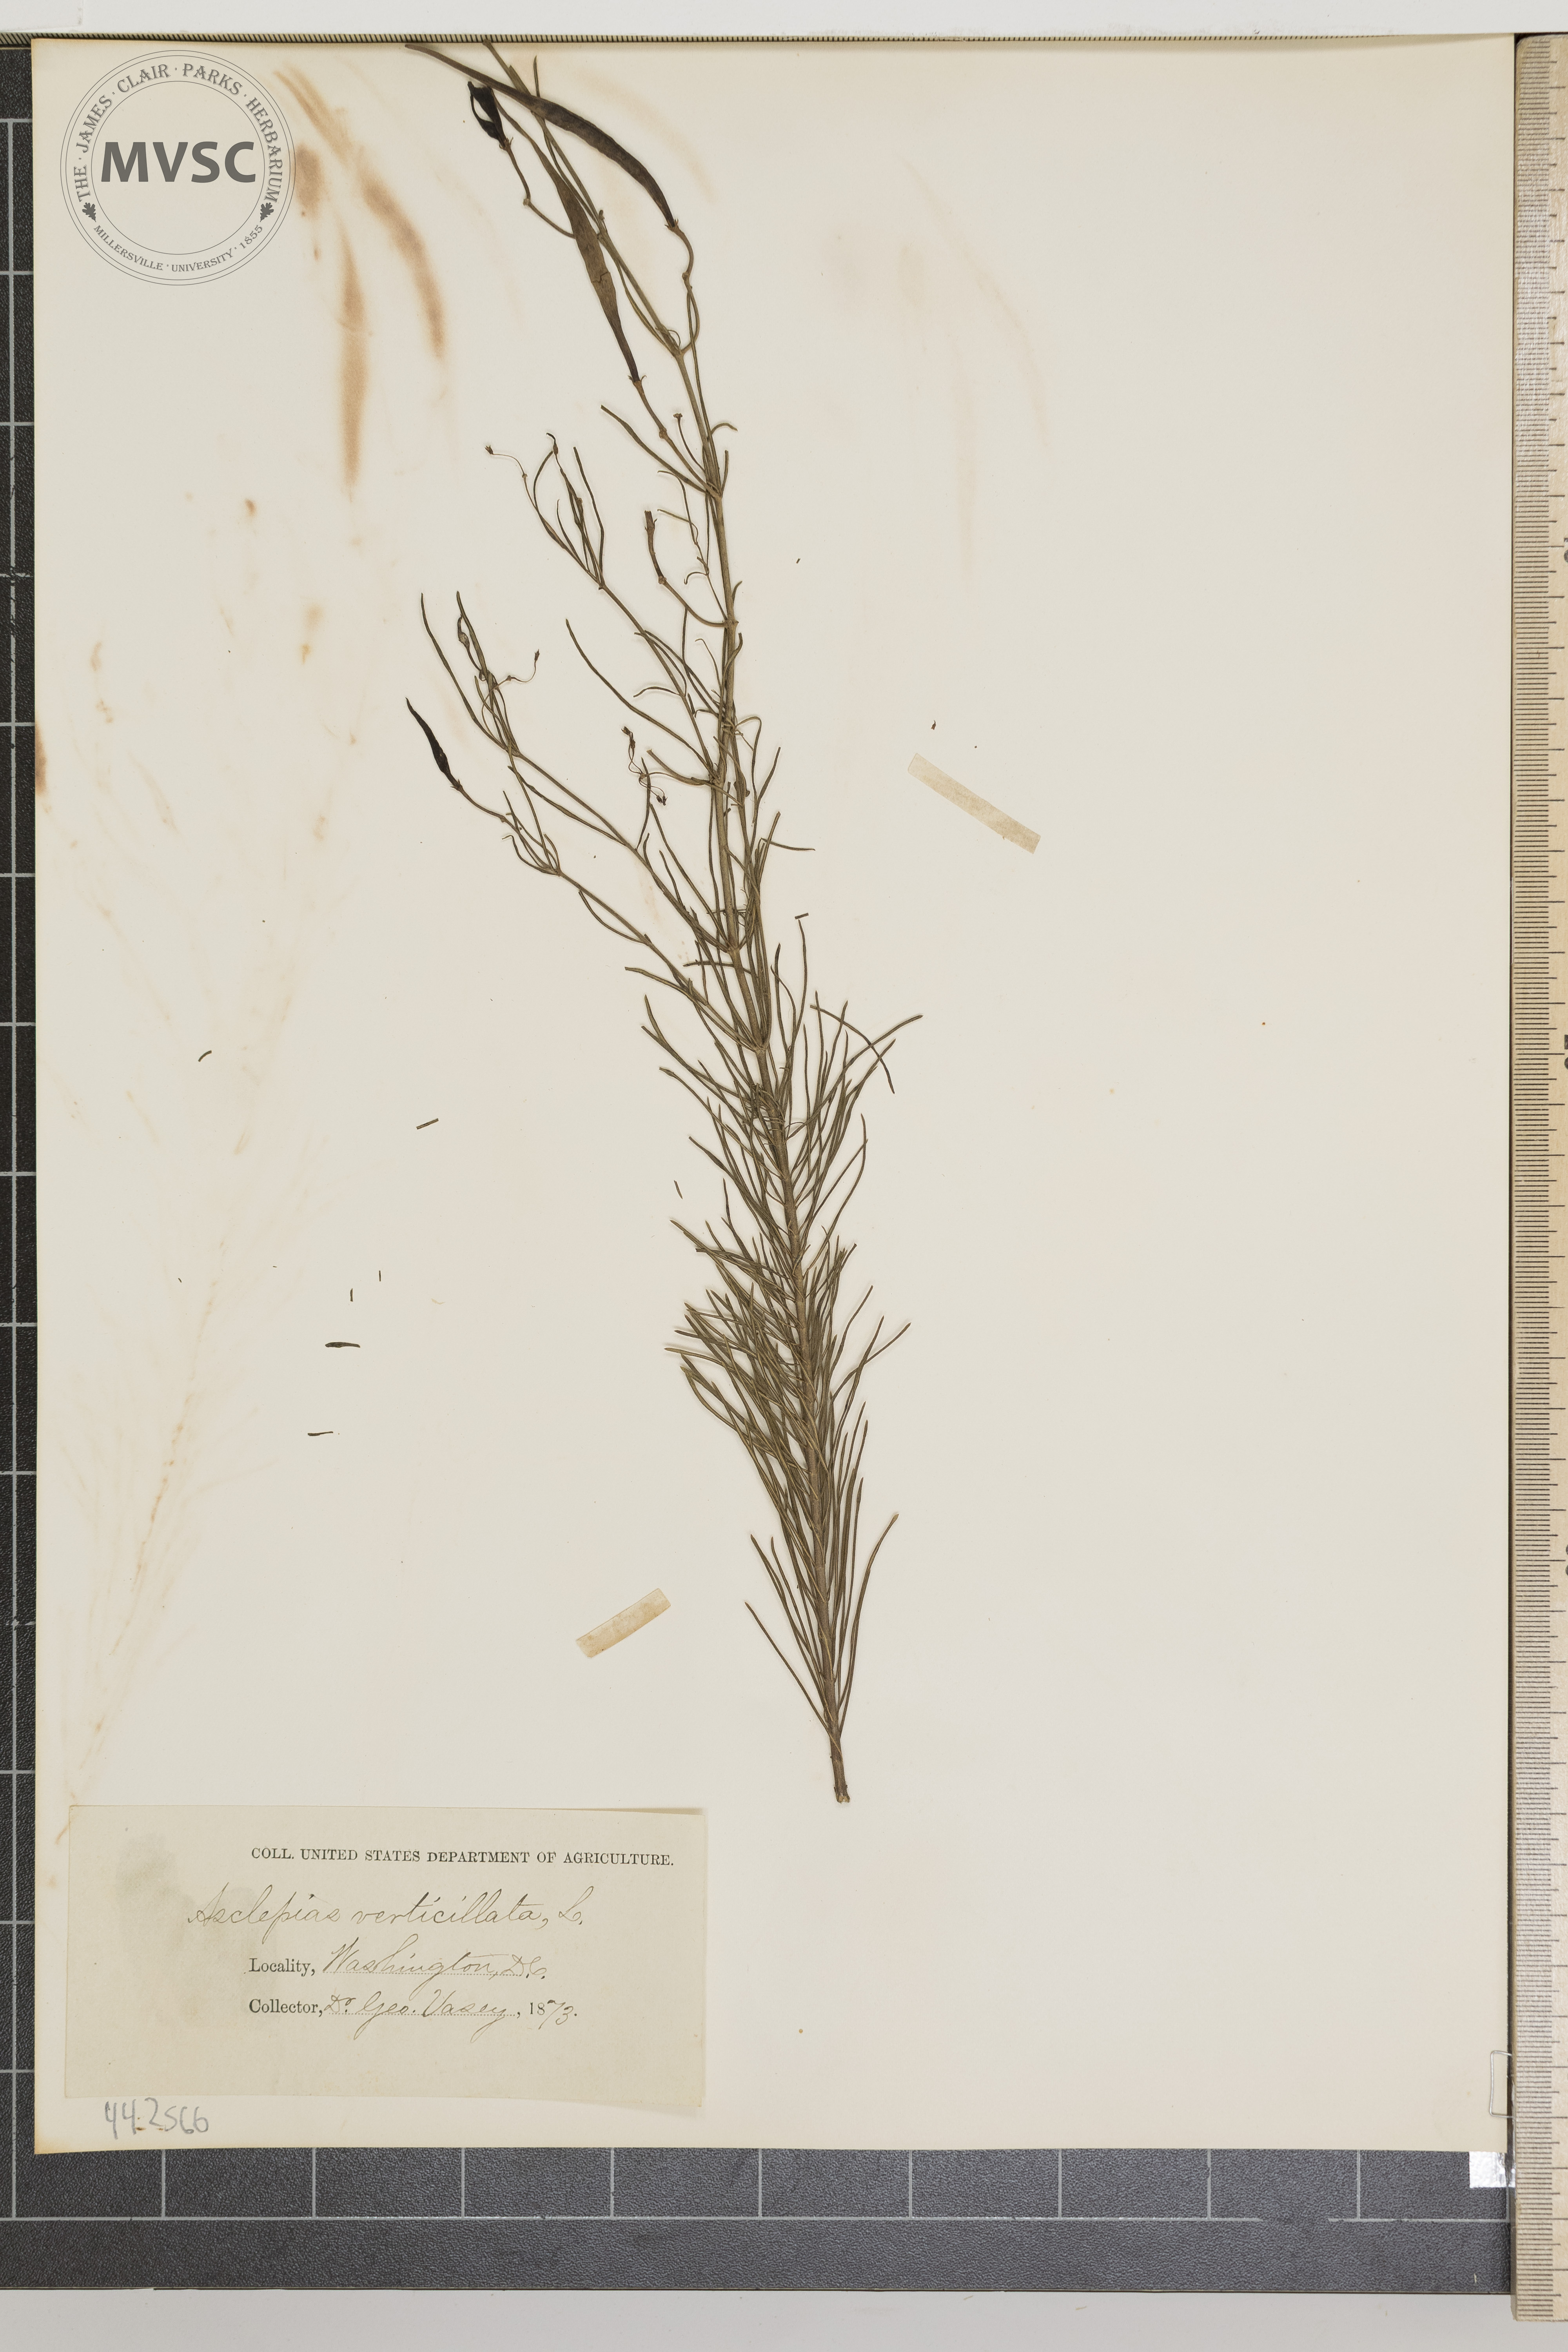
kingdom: Plantae
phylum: Tracheophyta
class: Magnoliopsida
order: Gentianales
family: Apocynaceae
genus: Asclepias
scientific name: Asclepias verticillata
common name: Eastern whorled milkweed
